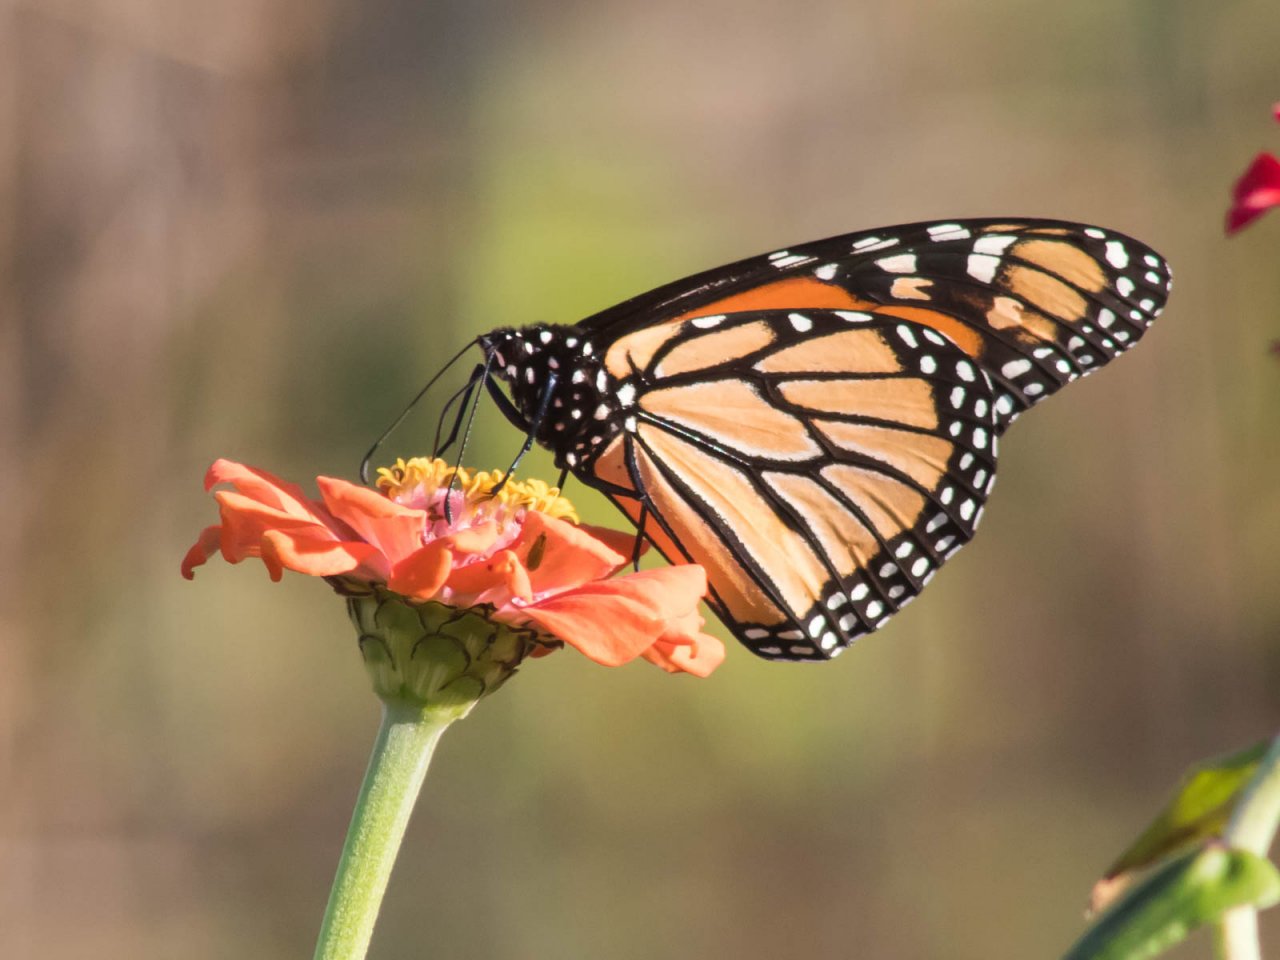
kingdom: Animalia
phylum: Arthropoda
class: Insecta
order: Lepidoptera
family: Nymphalidae
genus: Danaus
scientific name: Danaus plexippus
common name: Monarch
